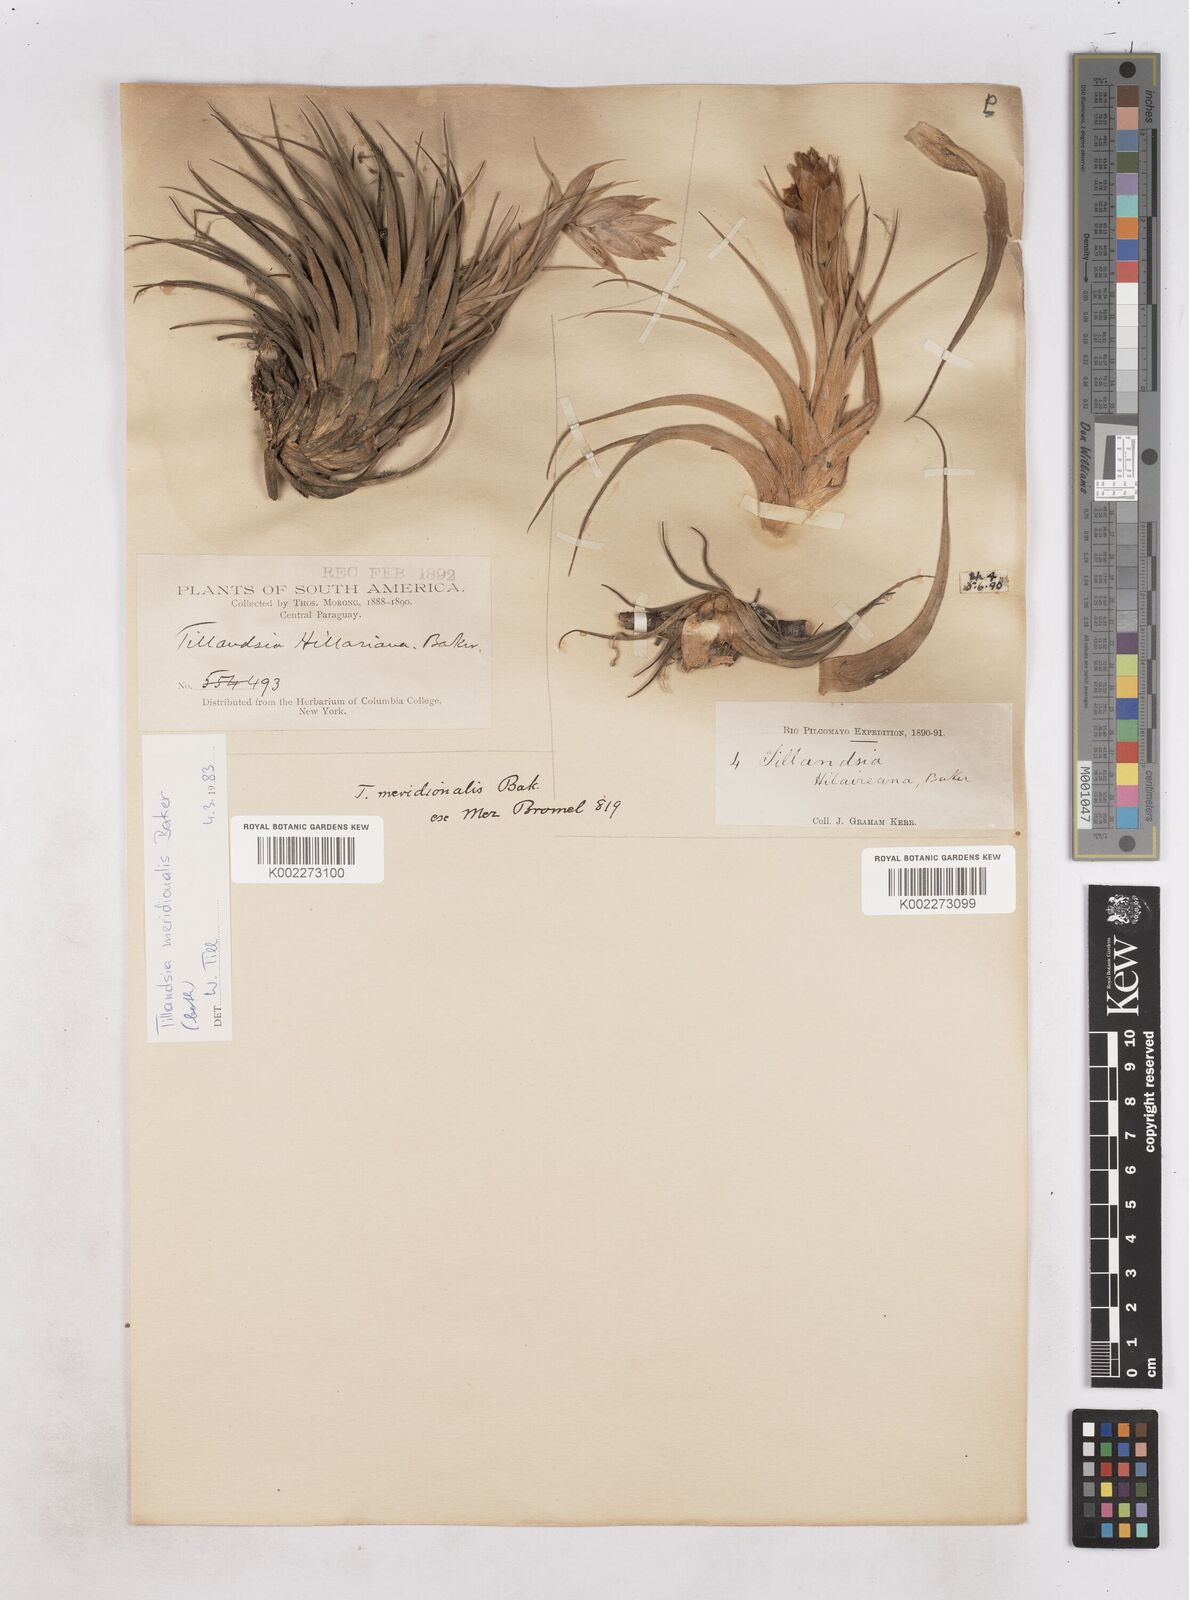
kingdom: Plantae
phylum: Tracheophyta
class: Liliopsida
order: Poales
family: Bromeliaceae
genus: Tillandsia
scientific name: Tillandsia recurvifolia
